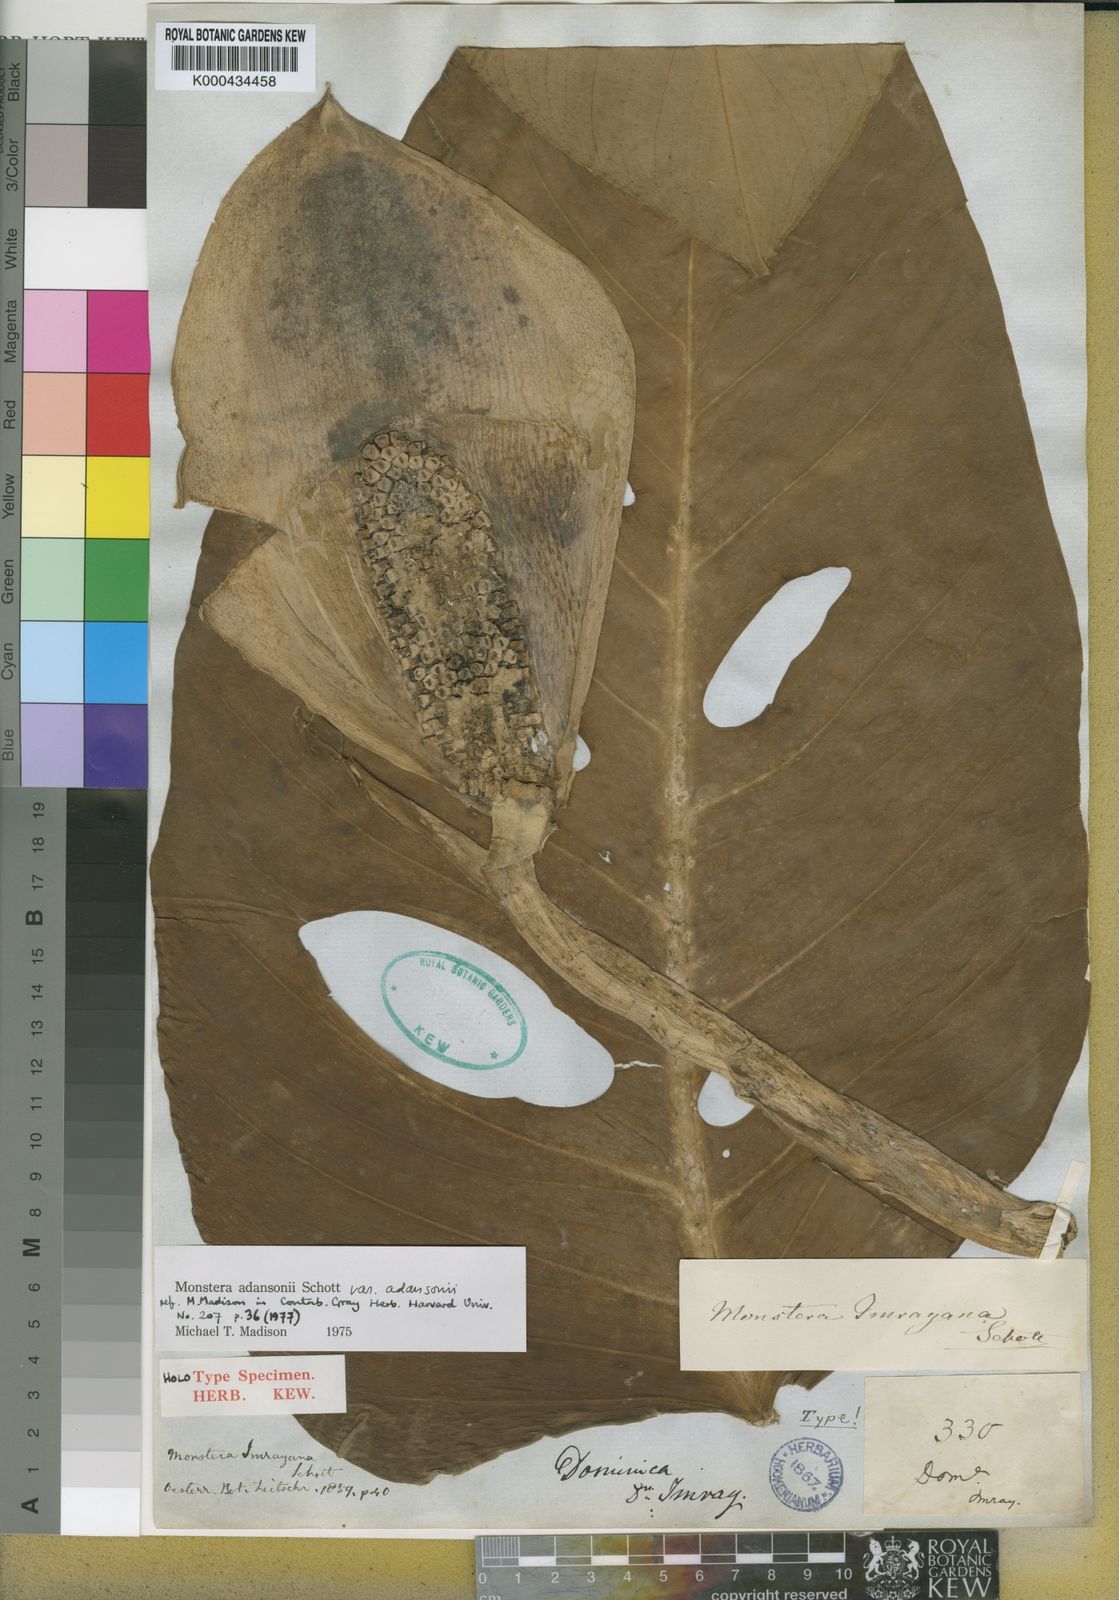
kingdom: Plantae
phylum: Tracheophyta
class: Liliopsida
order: Alismatales
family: Araceae
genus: Monstera
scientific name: Monstera adansonii
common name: Tarovine
